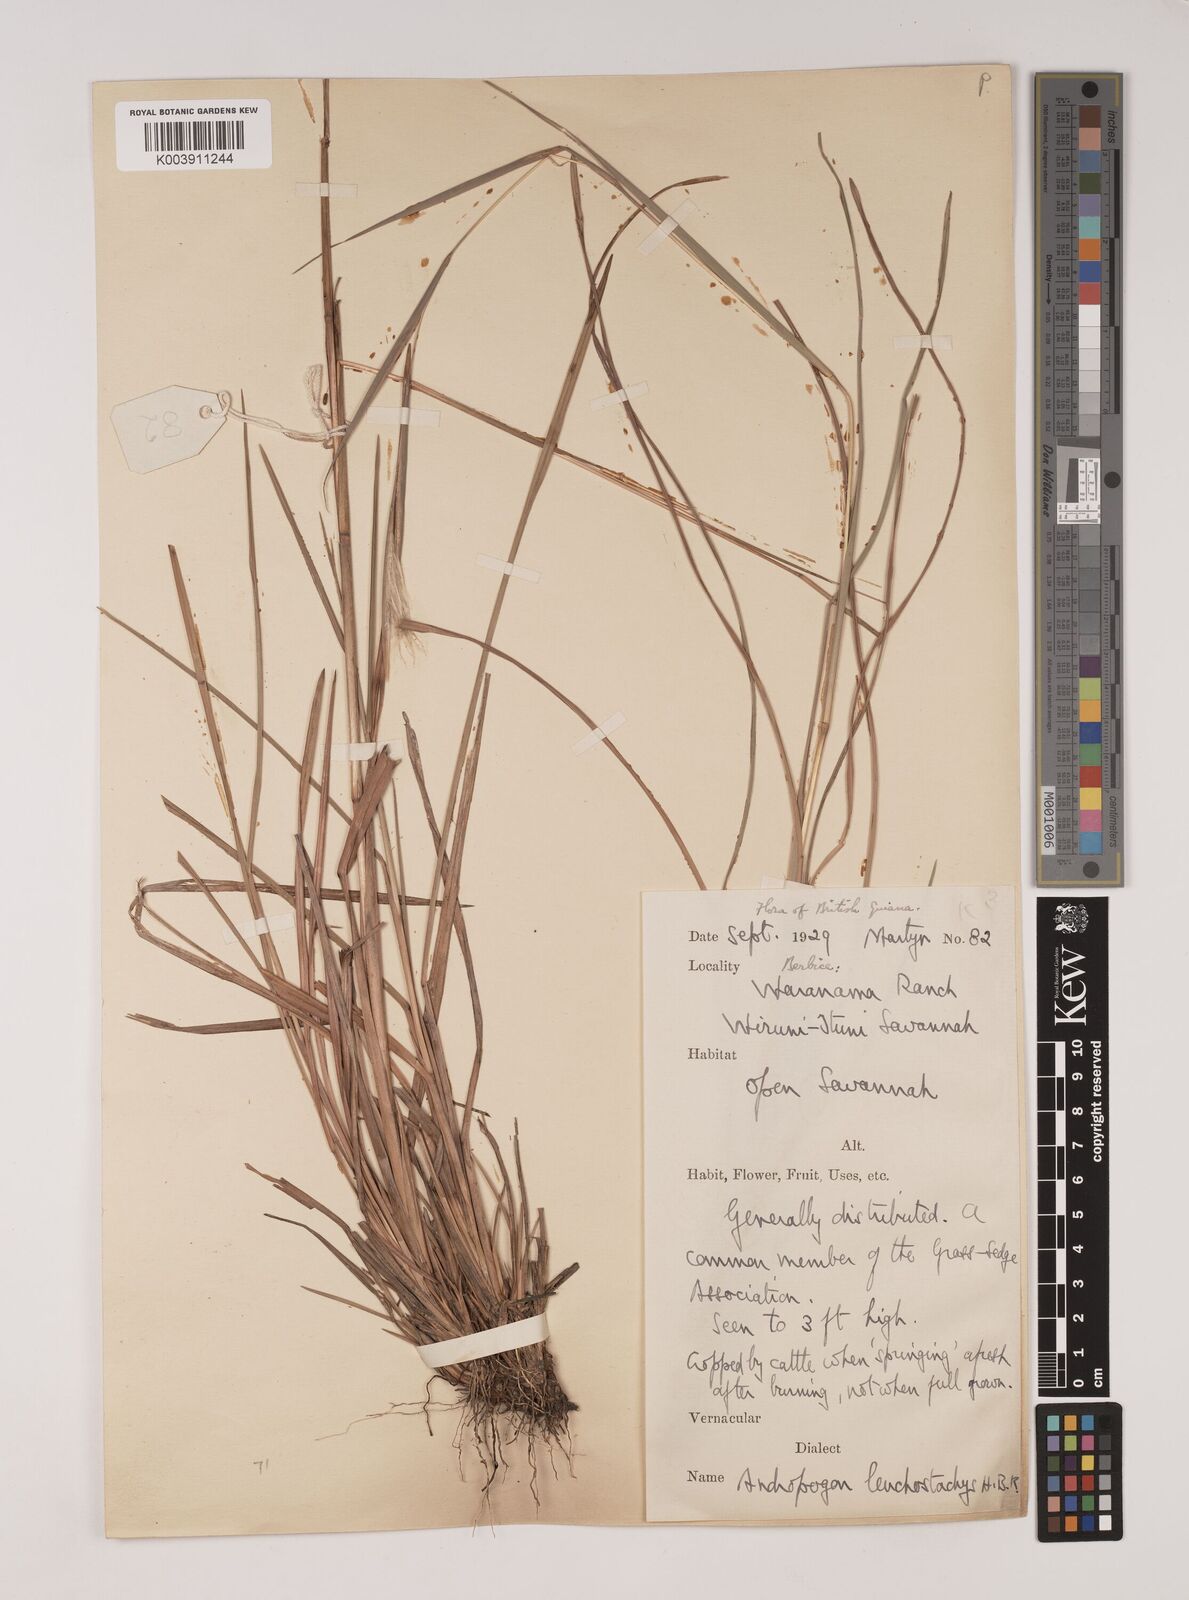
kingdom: Plantae
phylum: Tracheophyta
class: Liliopsida
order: Poales
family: Poaceae
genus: Andropogon
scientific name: Andropogon leucostachyus
